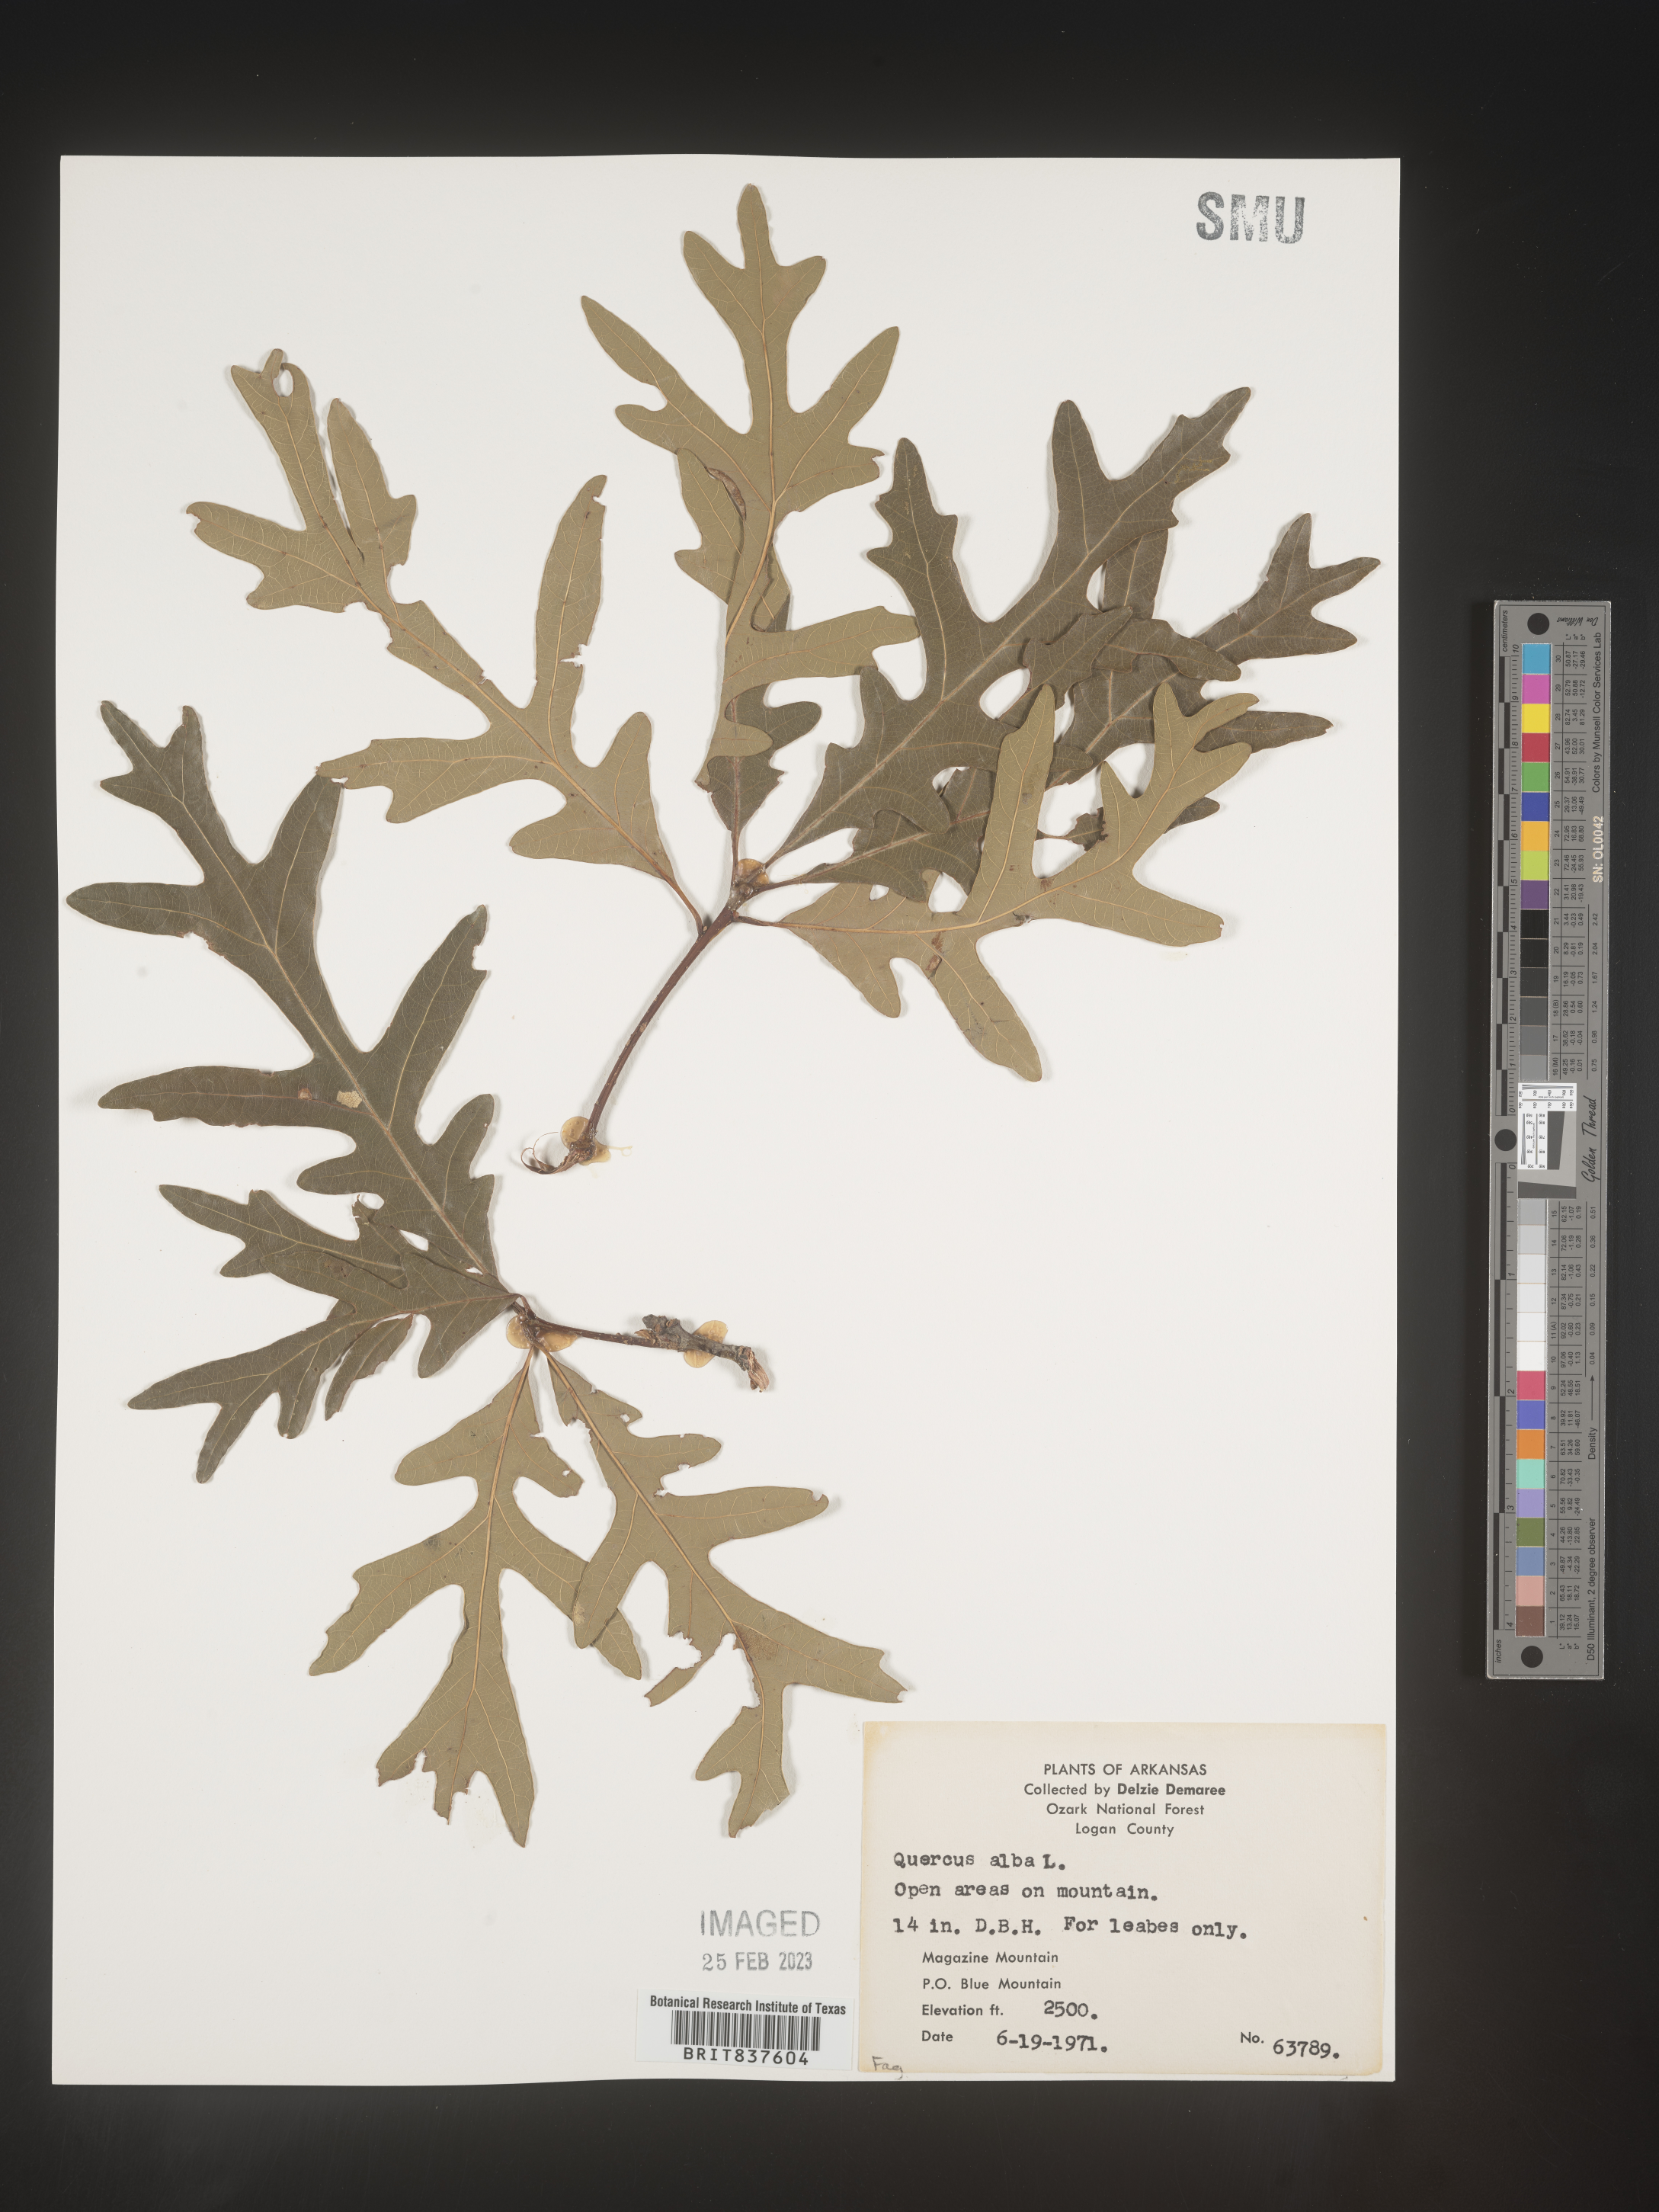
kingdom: Plantae
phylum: Tracheophyta
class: Magnoliopsida
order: Fagales
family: Fagaceae
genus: Quercus
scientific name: Quercus alba
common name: White oak
